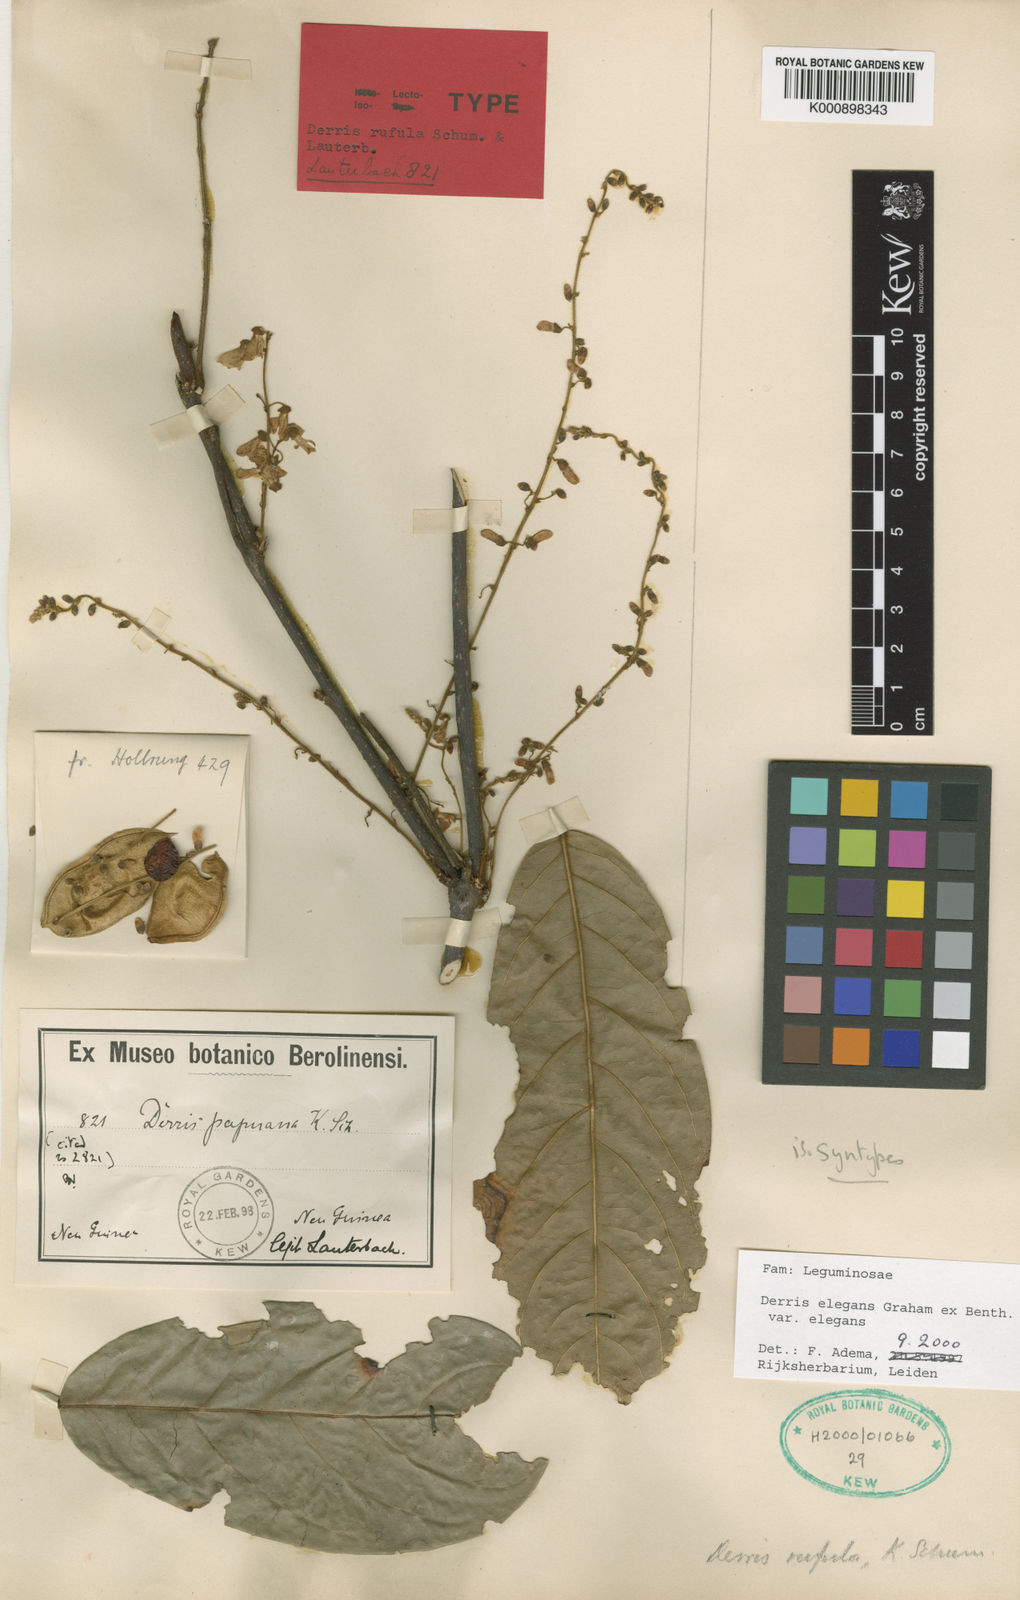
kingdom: Plantae
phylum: Tracheophyta
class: Magnoliopsida
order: Fabales
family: Fabaceae
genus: Derris
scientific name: Derris elegans
